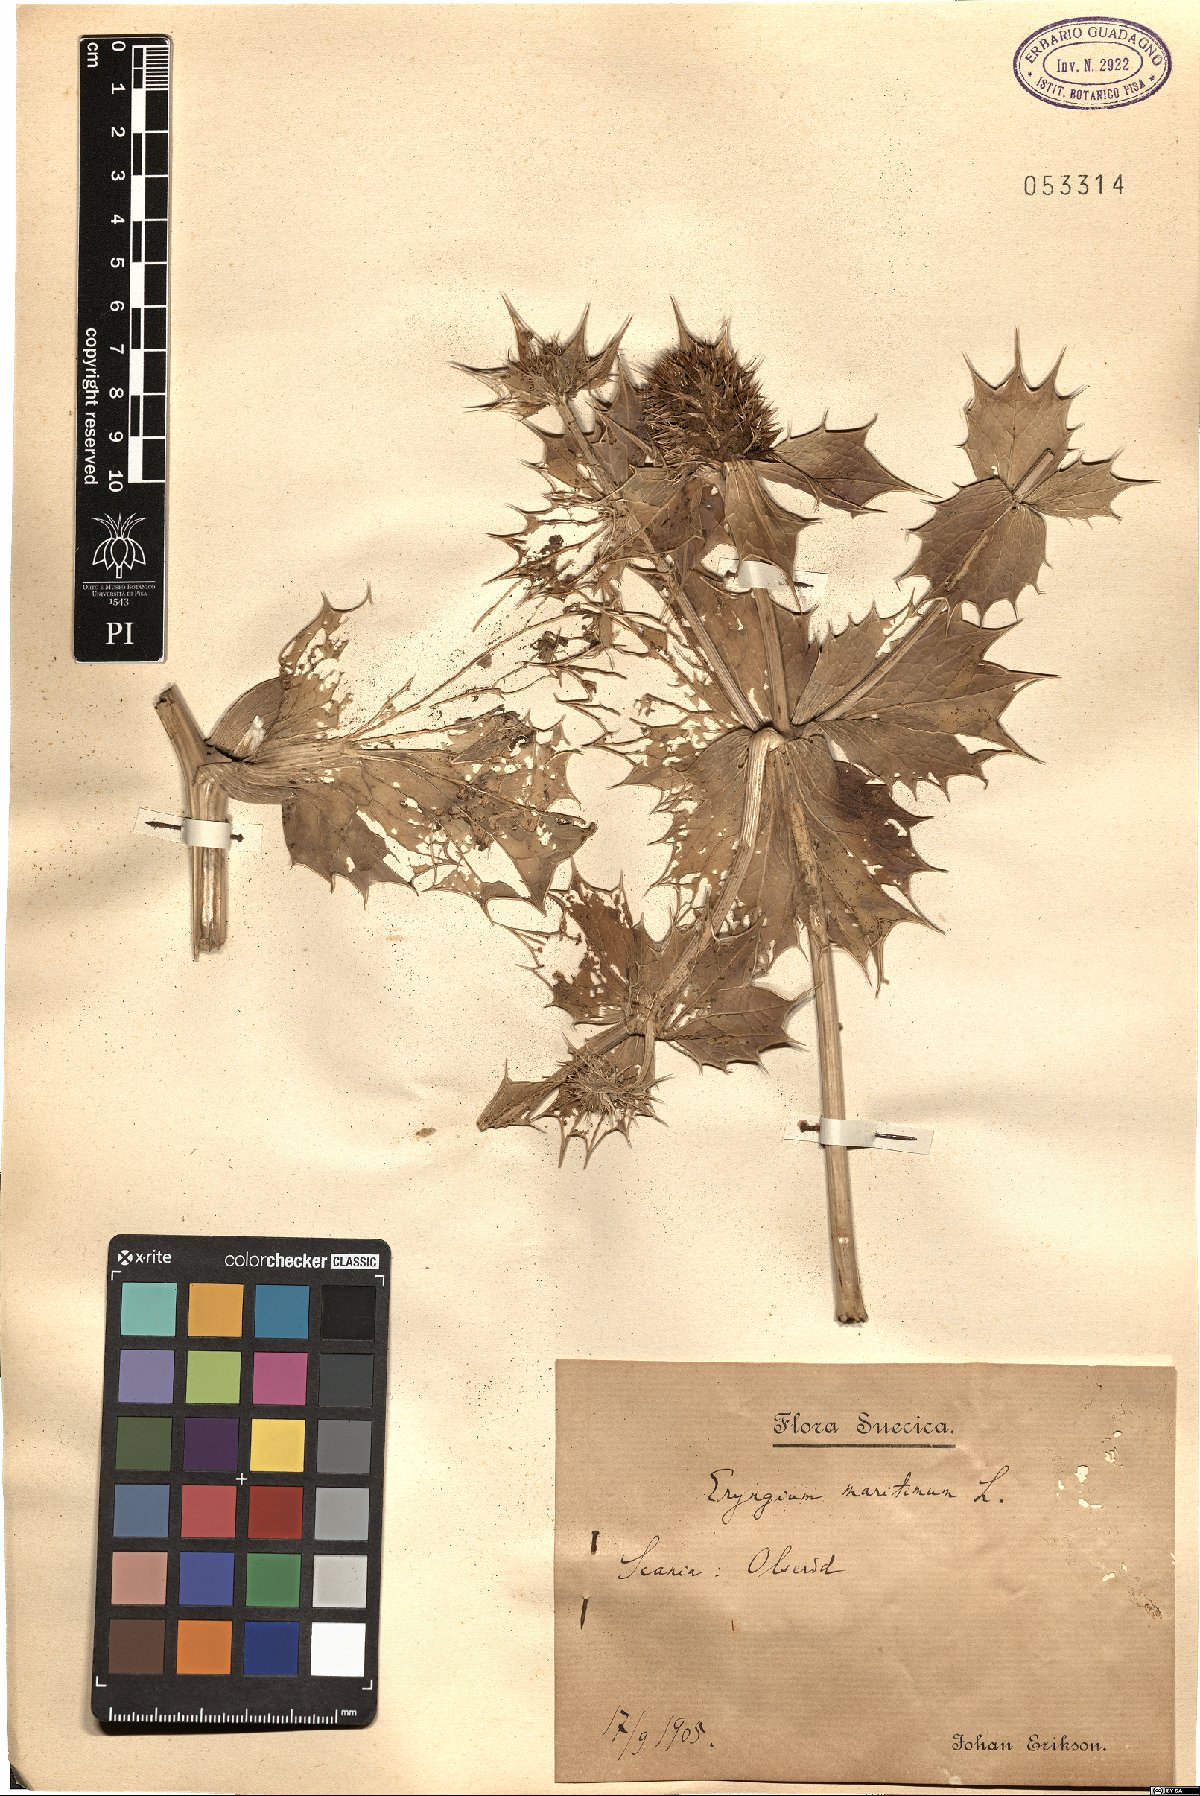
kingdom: Plantae
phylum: Tracheophyta
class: Magnoliopsida
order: Apiales
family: Apiaceae
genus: Eryngium
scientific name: Eryngium maritimum
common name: Sea-holly
